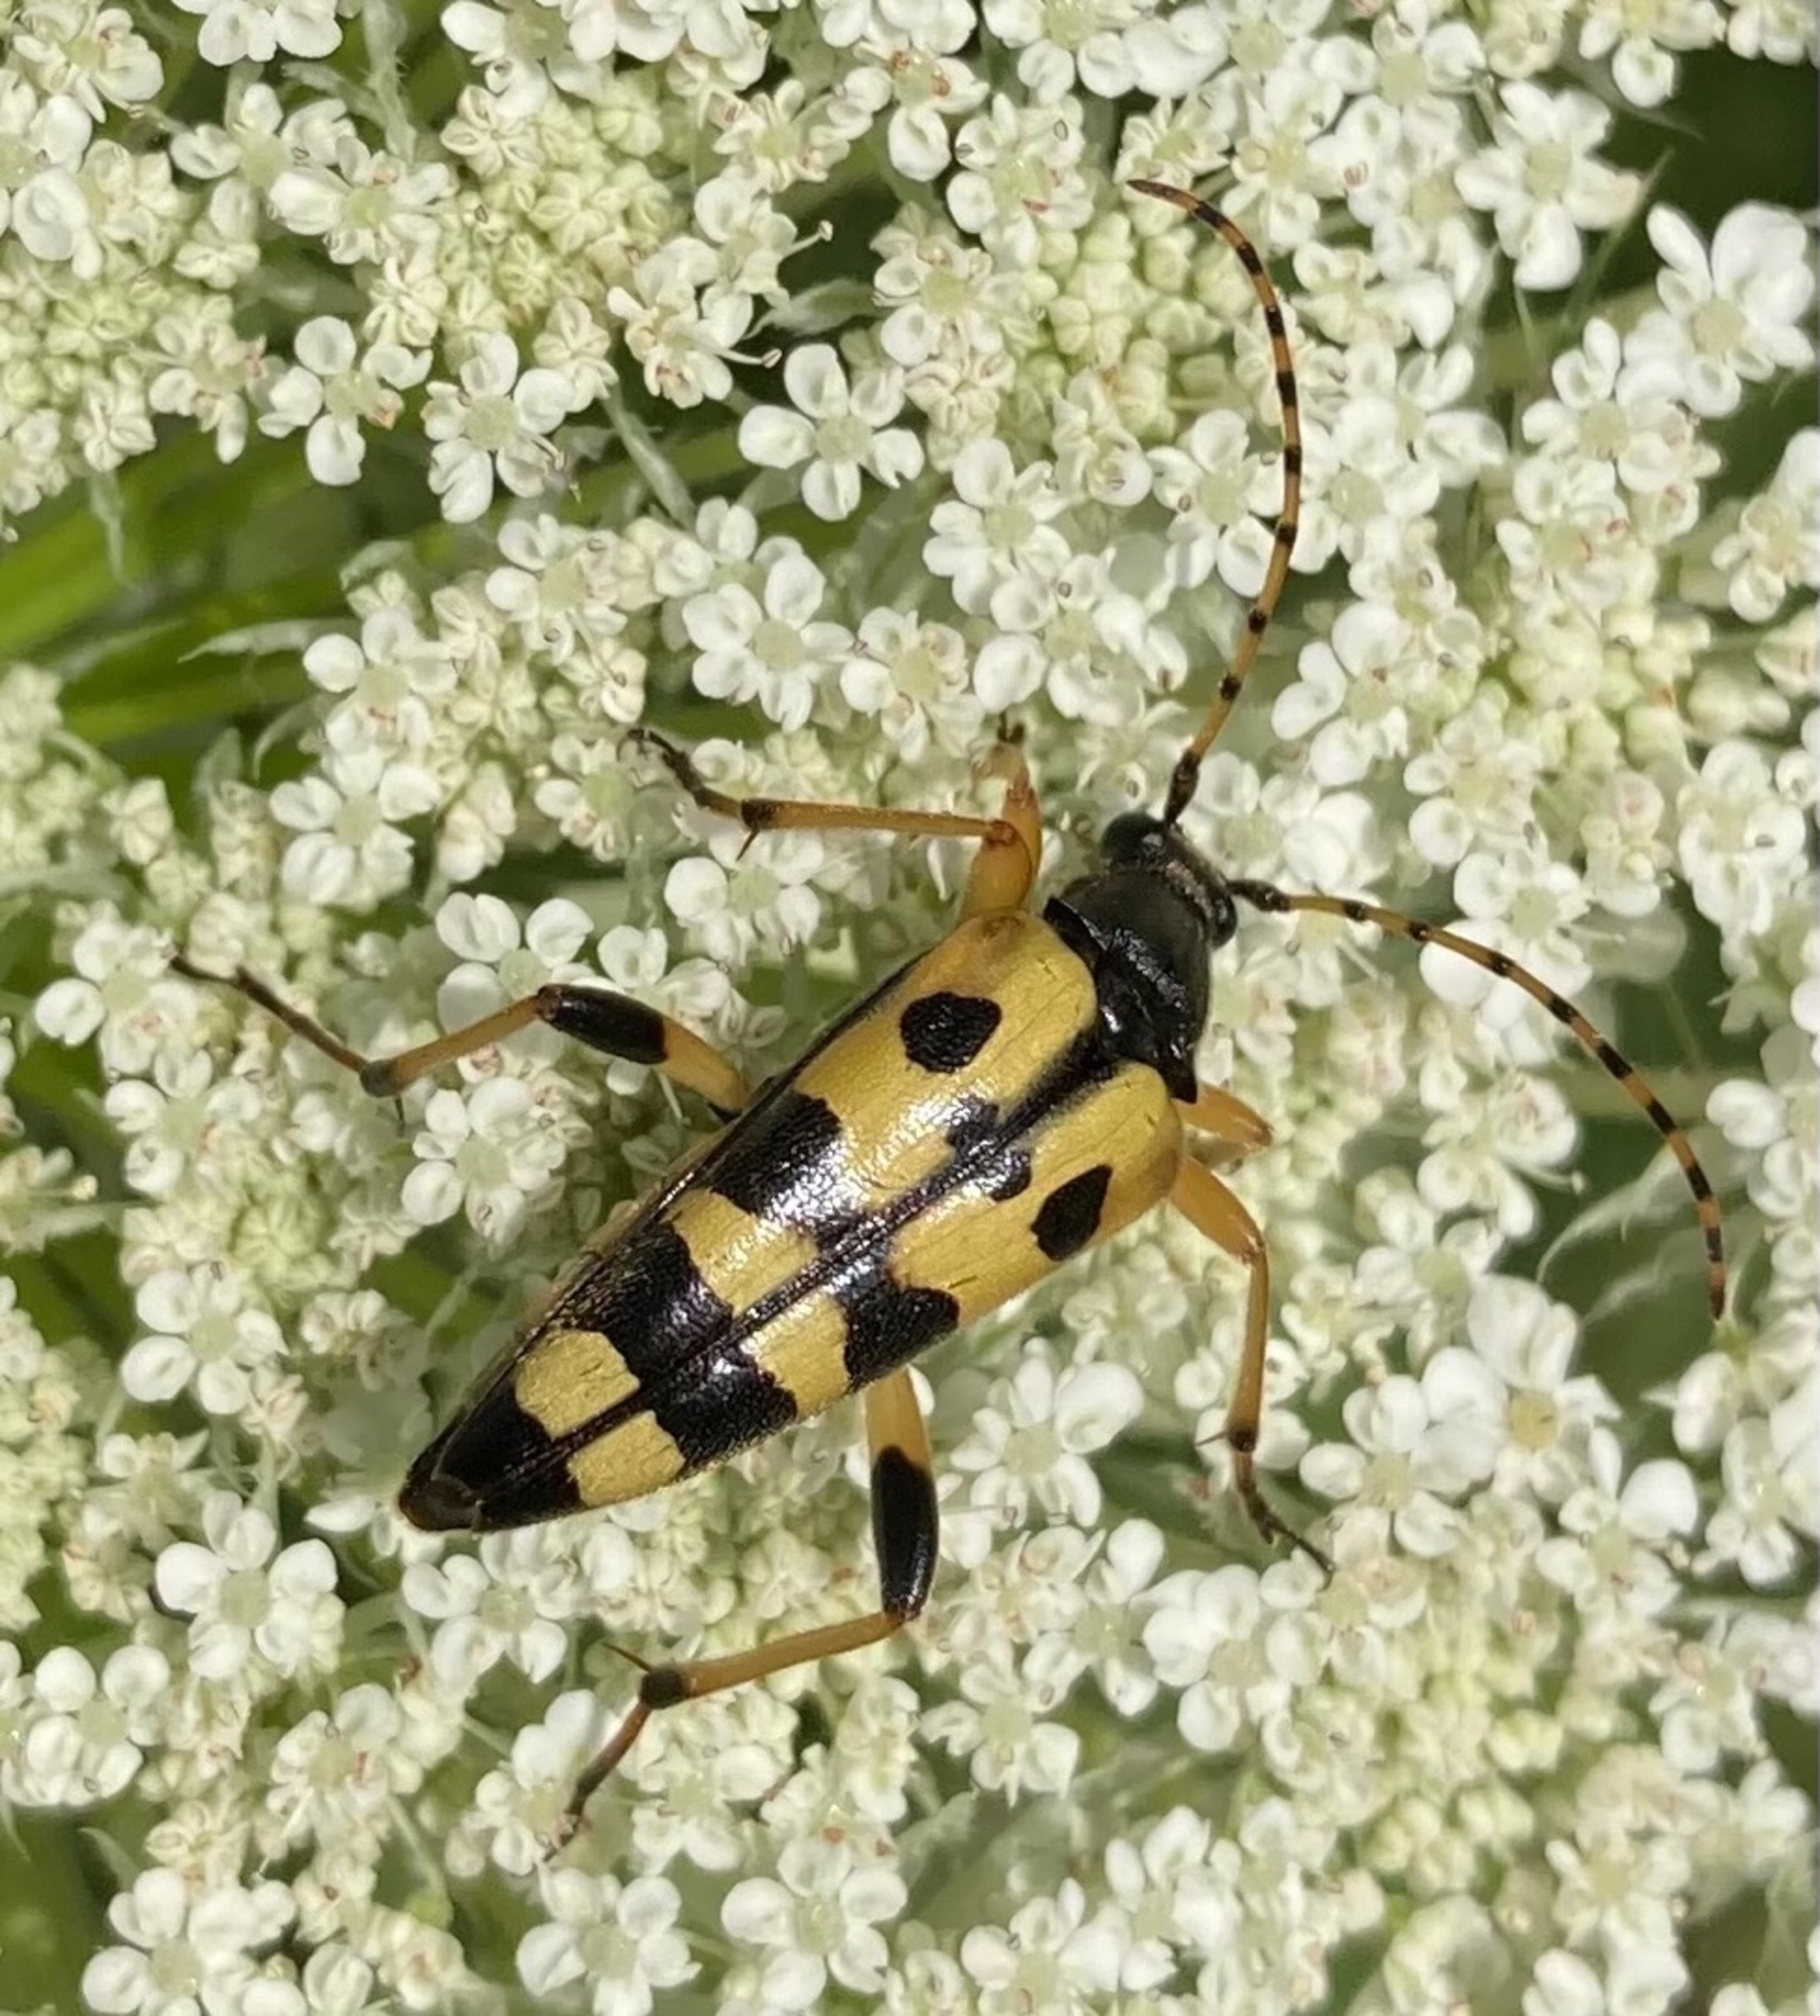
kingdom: Animalia
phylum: Arthropoda
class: Insecta
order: Coleoptera
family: Cerambycidae
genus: Rutpela
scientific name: Rutpela maculata
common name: Sydlig blomsterbuk
